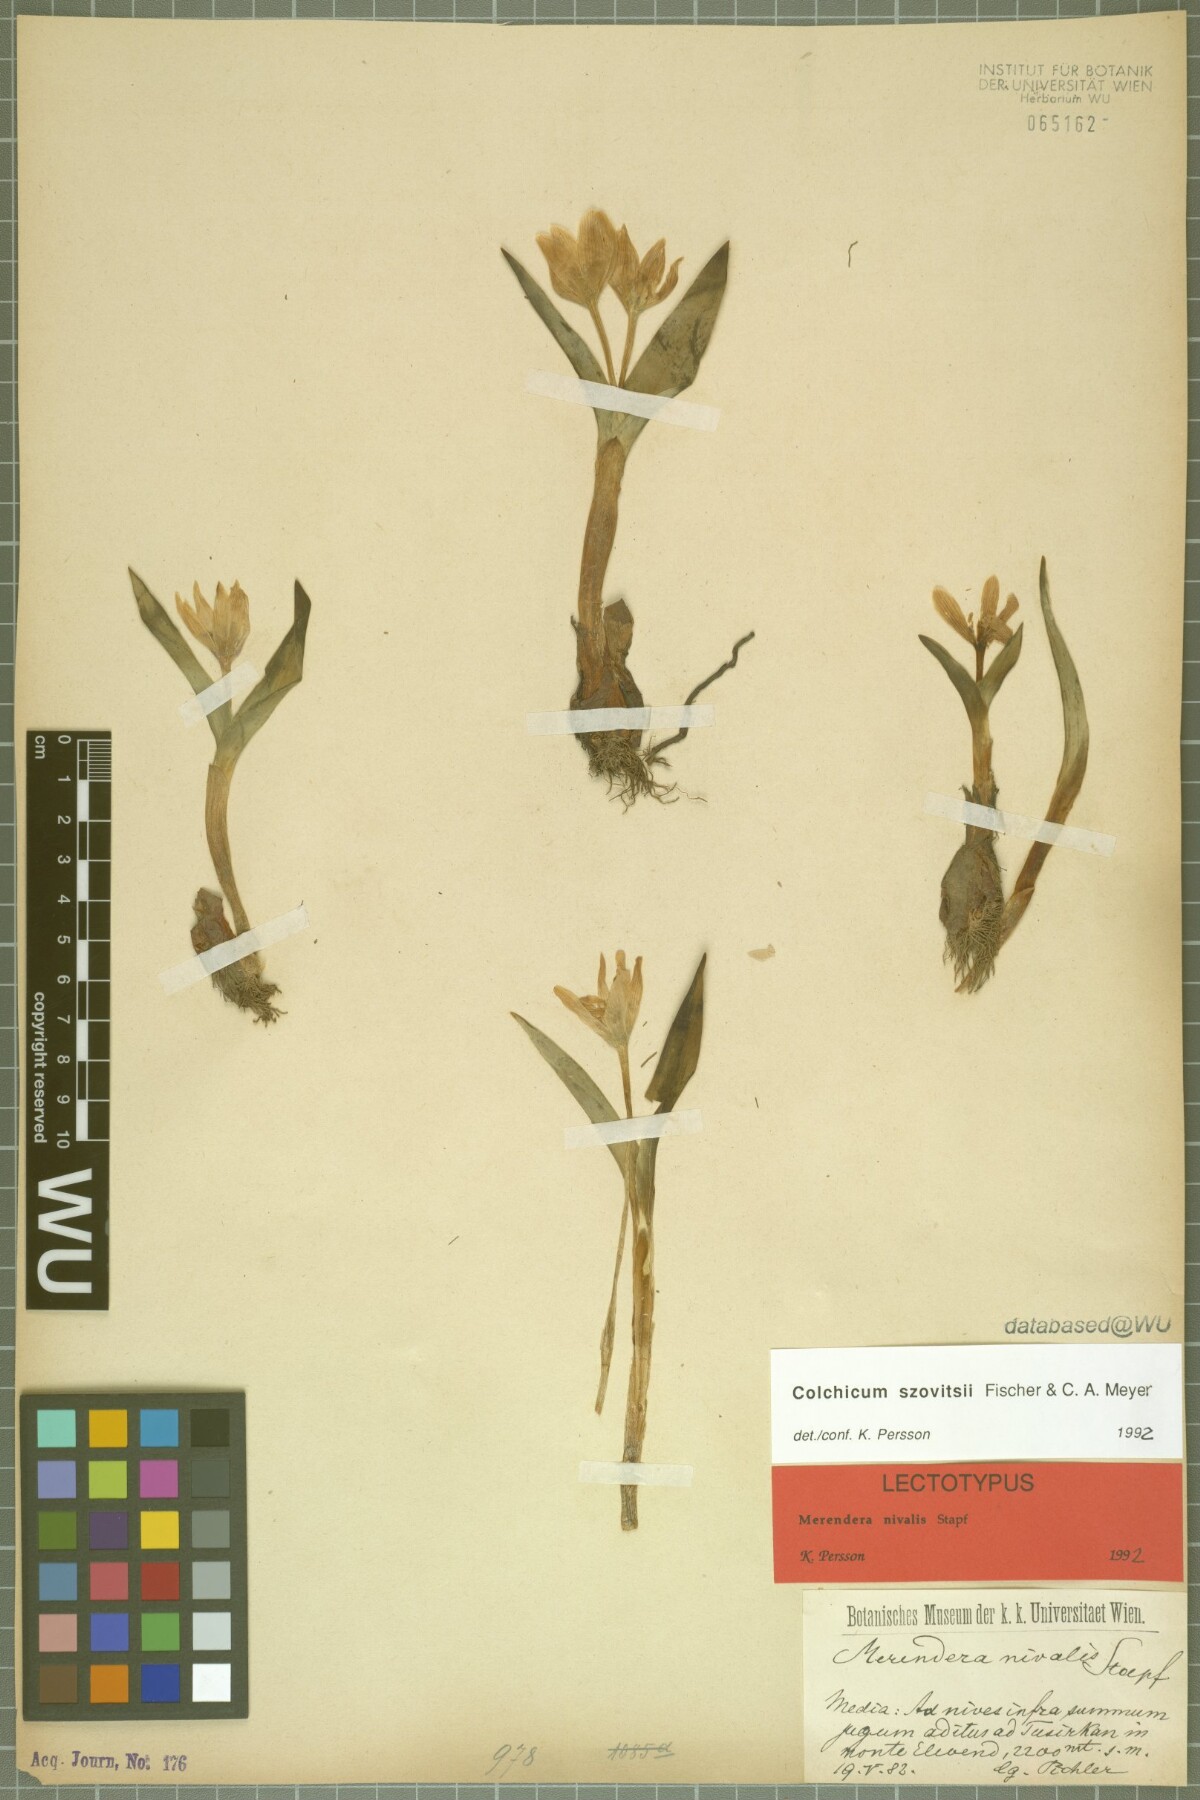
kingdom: Plantae
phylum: Tracheophyta
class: Liliopsida
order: Liliales
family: Colchicaceae
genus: Colchicum
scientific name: Colchicum szovitsii
